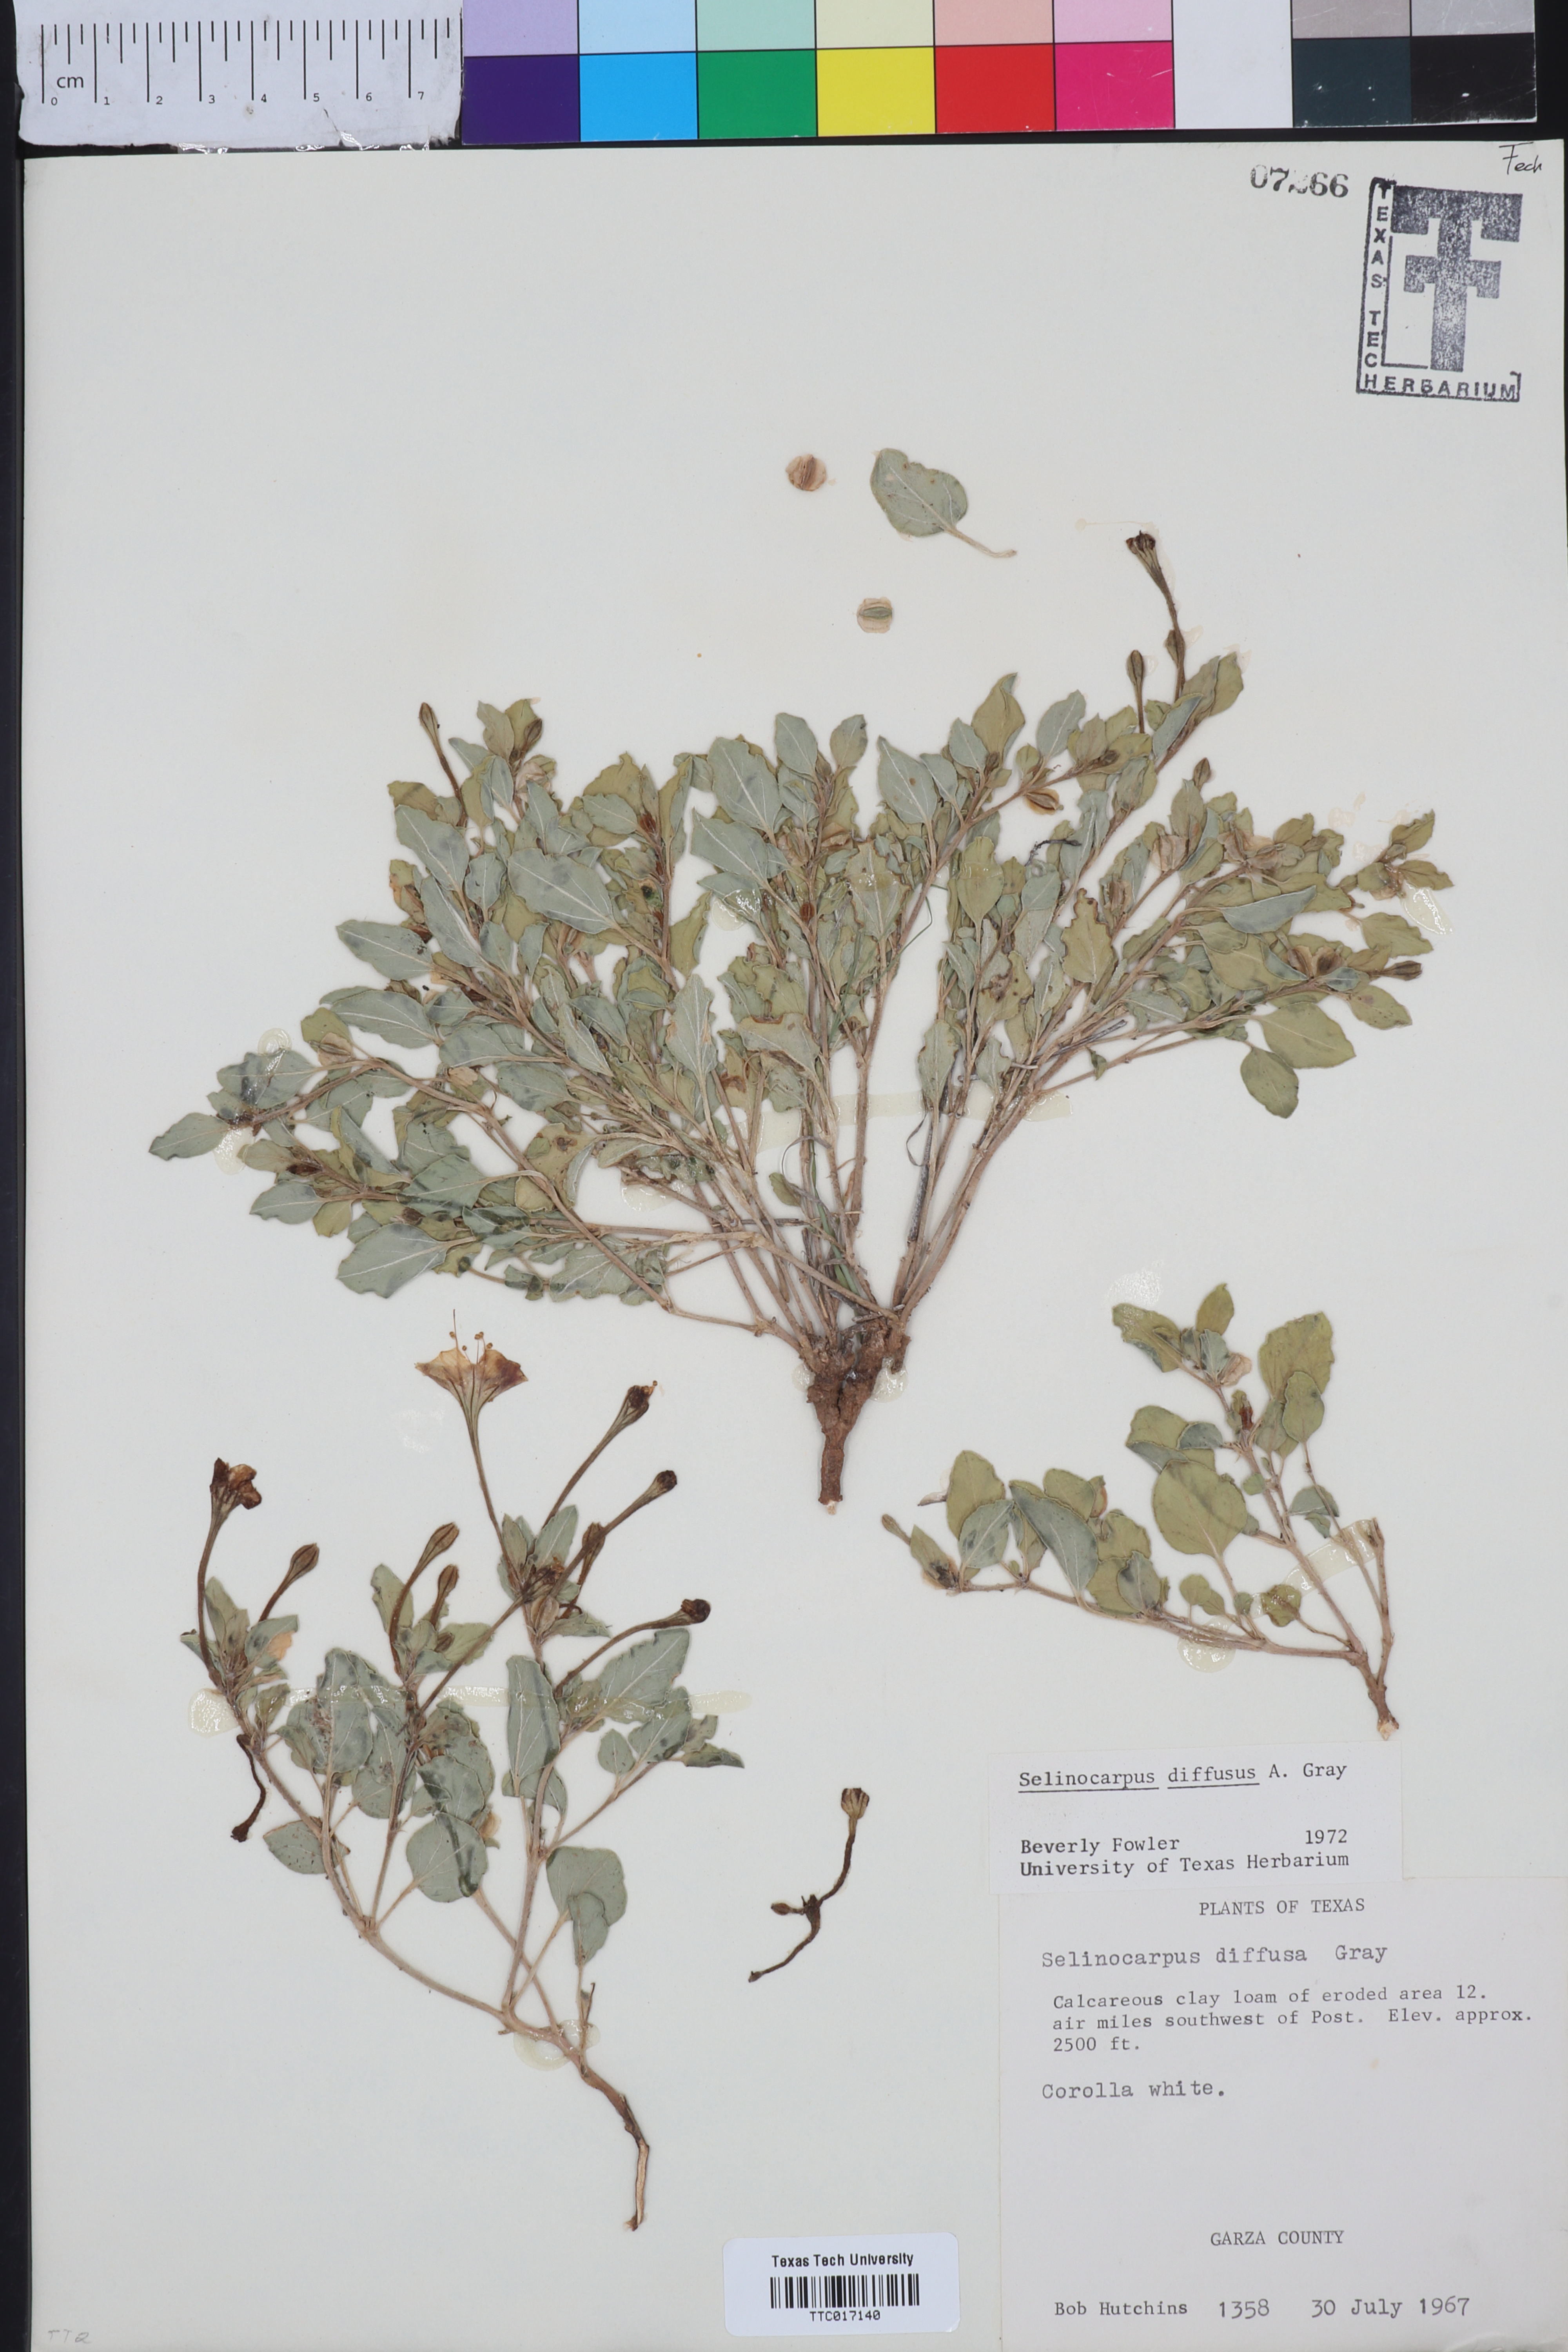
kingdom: Plantae
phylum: Tracheophyta
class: Magnoliopsida
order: Caryophyllales
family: Nyctaginaceae
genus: Acleisanthes
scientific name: Acleisanthes diffusa
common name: Spreading moonpod
